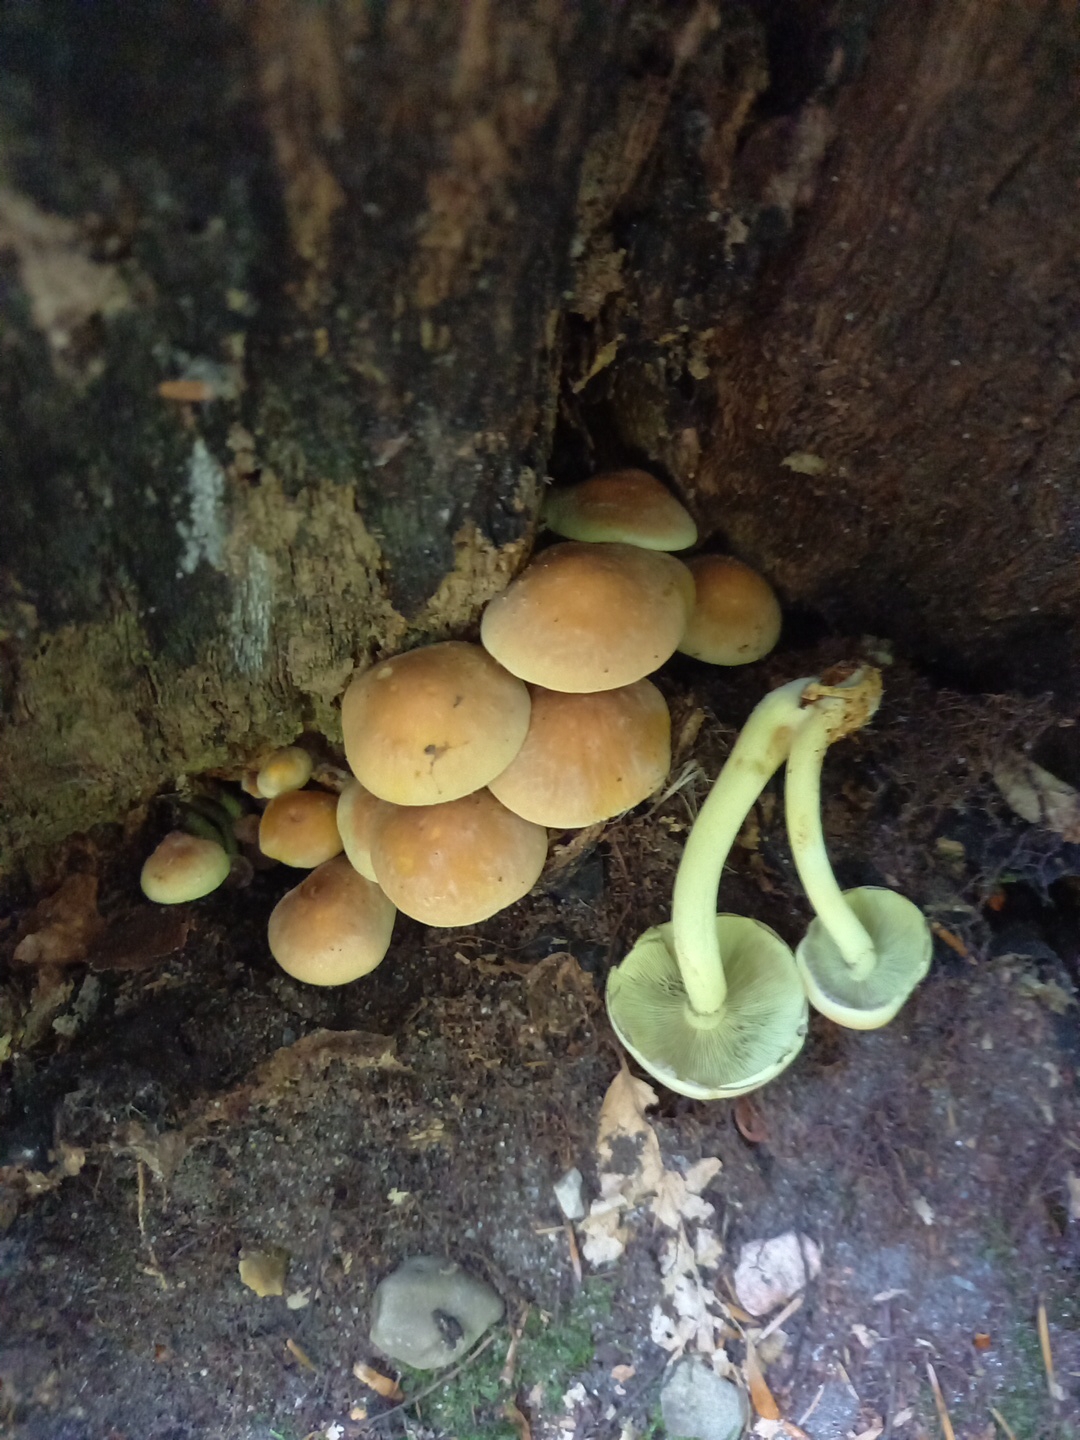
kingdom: Fungi
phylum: Basidiomycota
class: Agaricomycetes
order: Agaricales
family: Strophariaceae
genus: Hypholoma
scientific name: Hypholoma fasciculare
